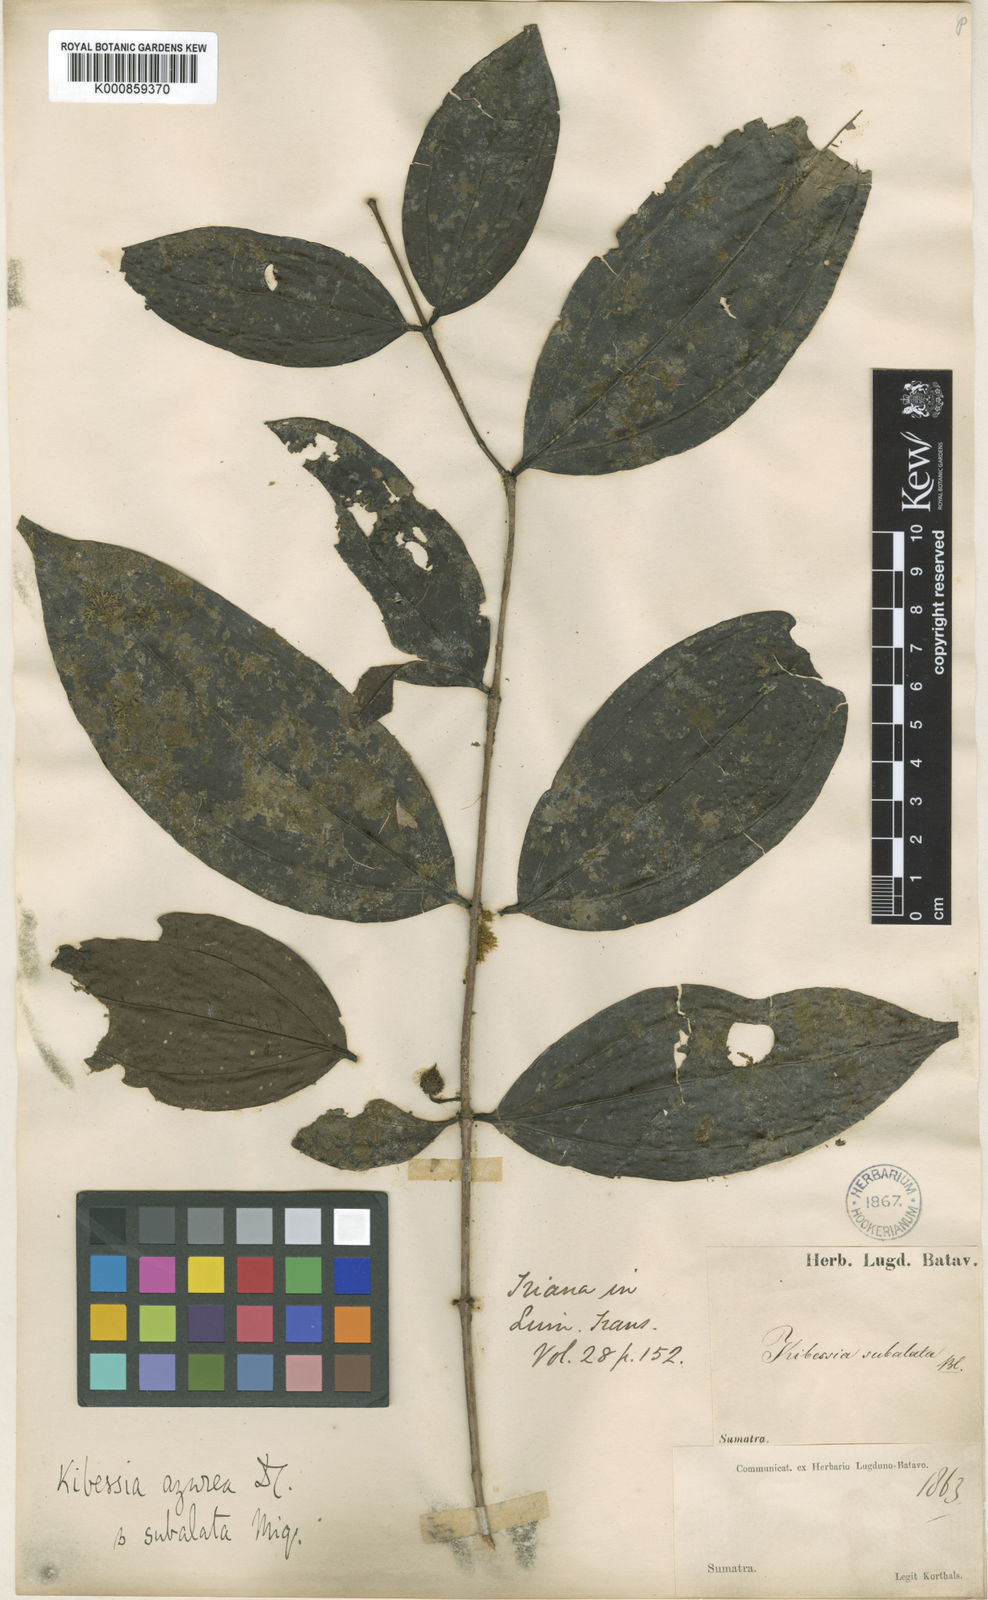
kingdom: Plantae
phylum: Tracheophyta
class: Magnoliopsida
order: Myrtales
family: Melastomataceae
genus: Pternandra
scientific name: Pternandra azurea
